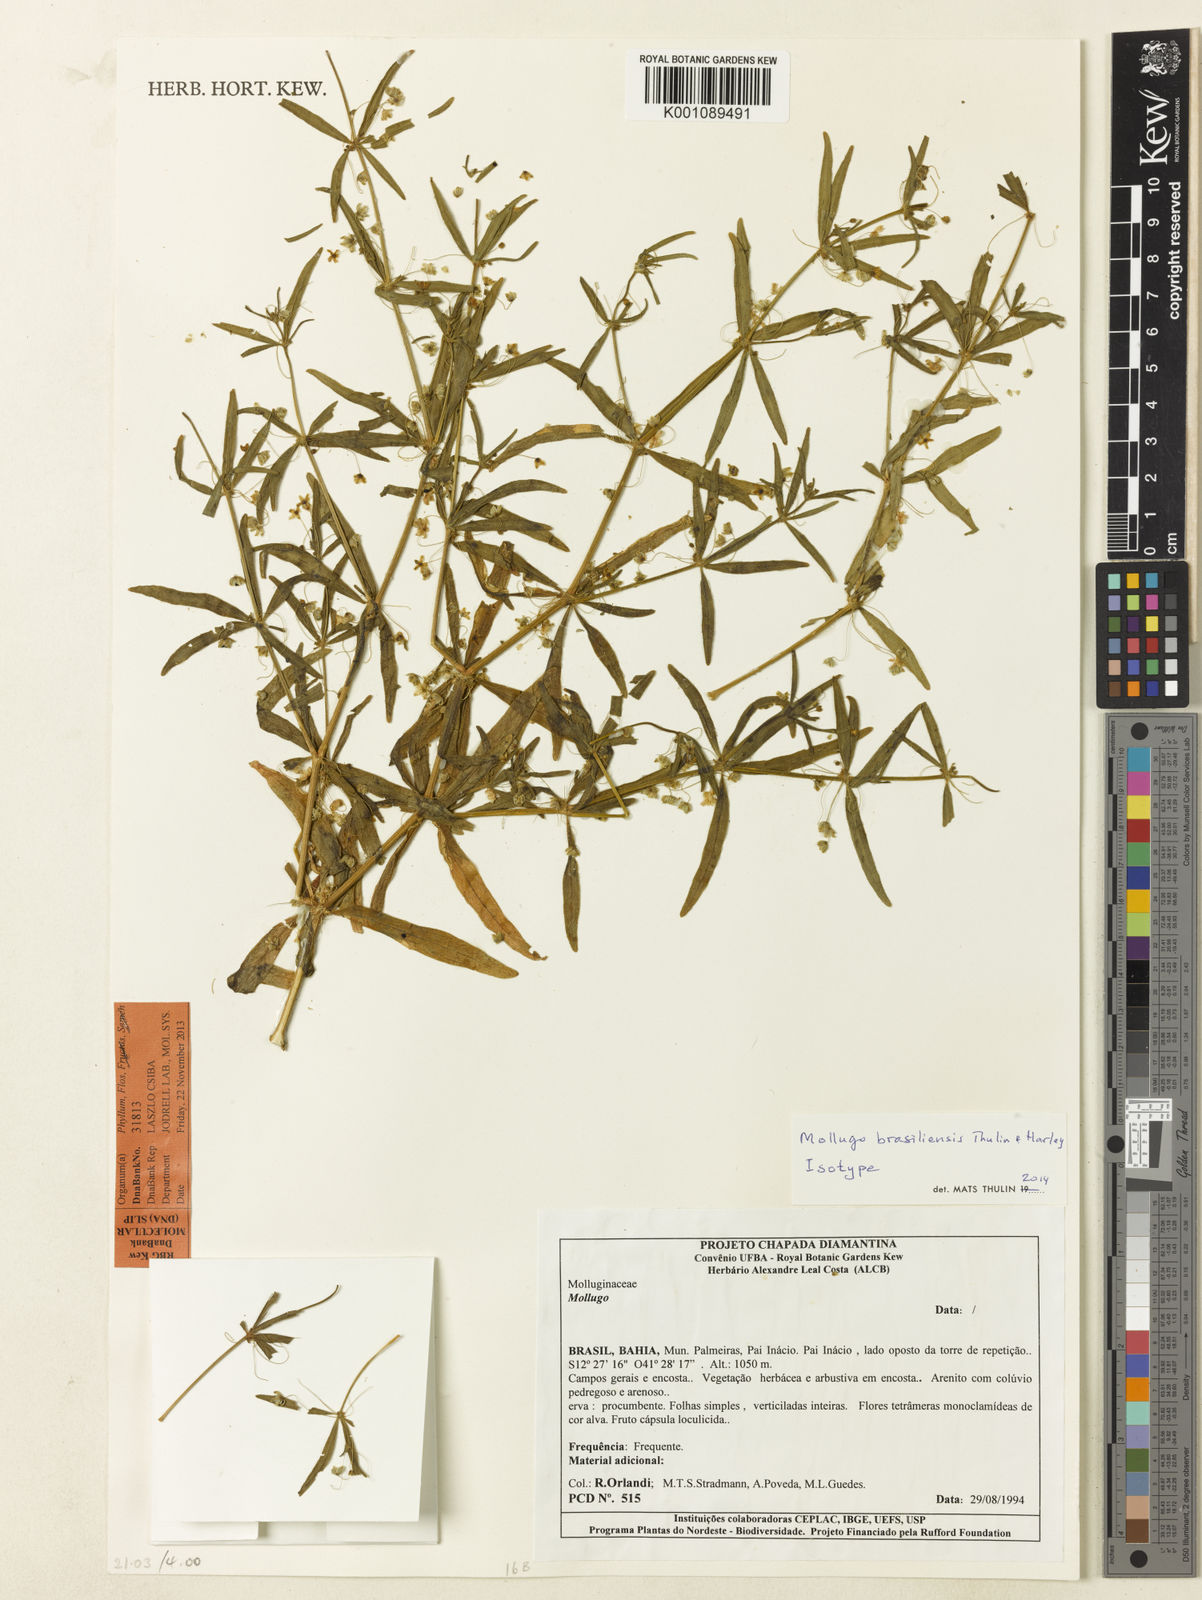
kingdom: Plantae
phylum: Tracheophyta
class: Magnoliopsida
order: Caryophyllales
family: Molluginaceae
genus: Mollugo
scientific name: Mollugo brasiliensis
